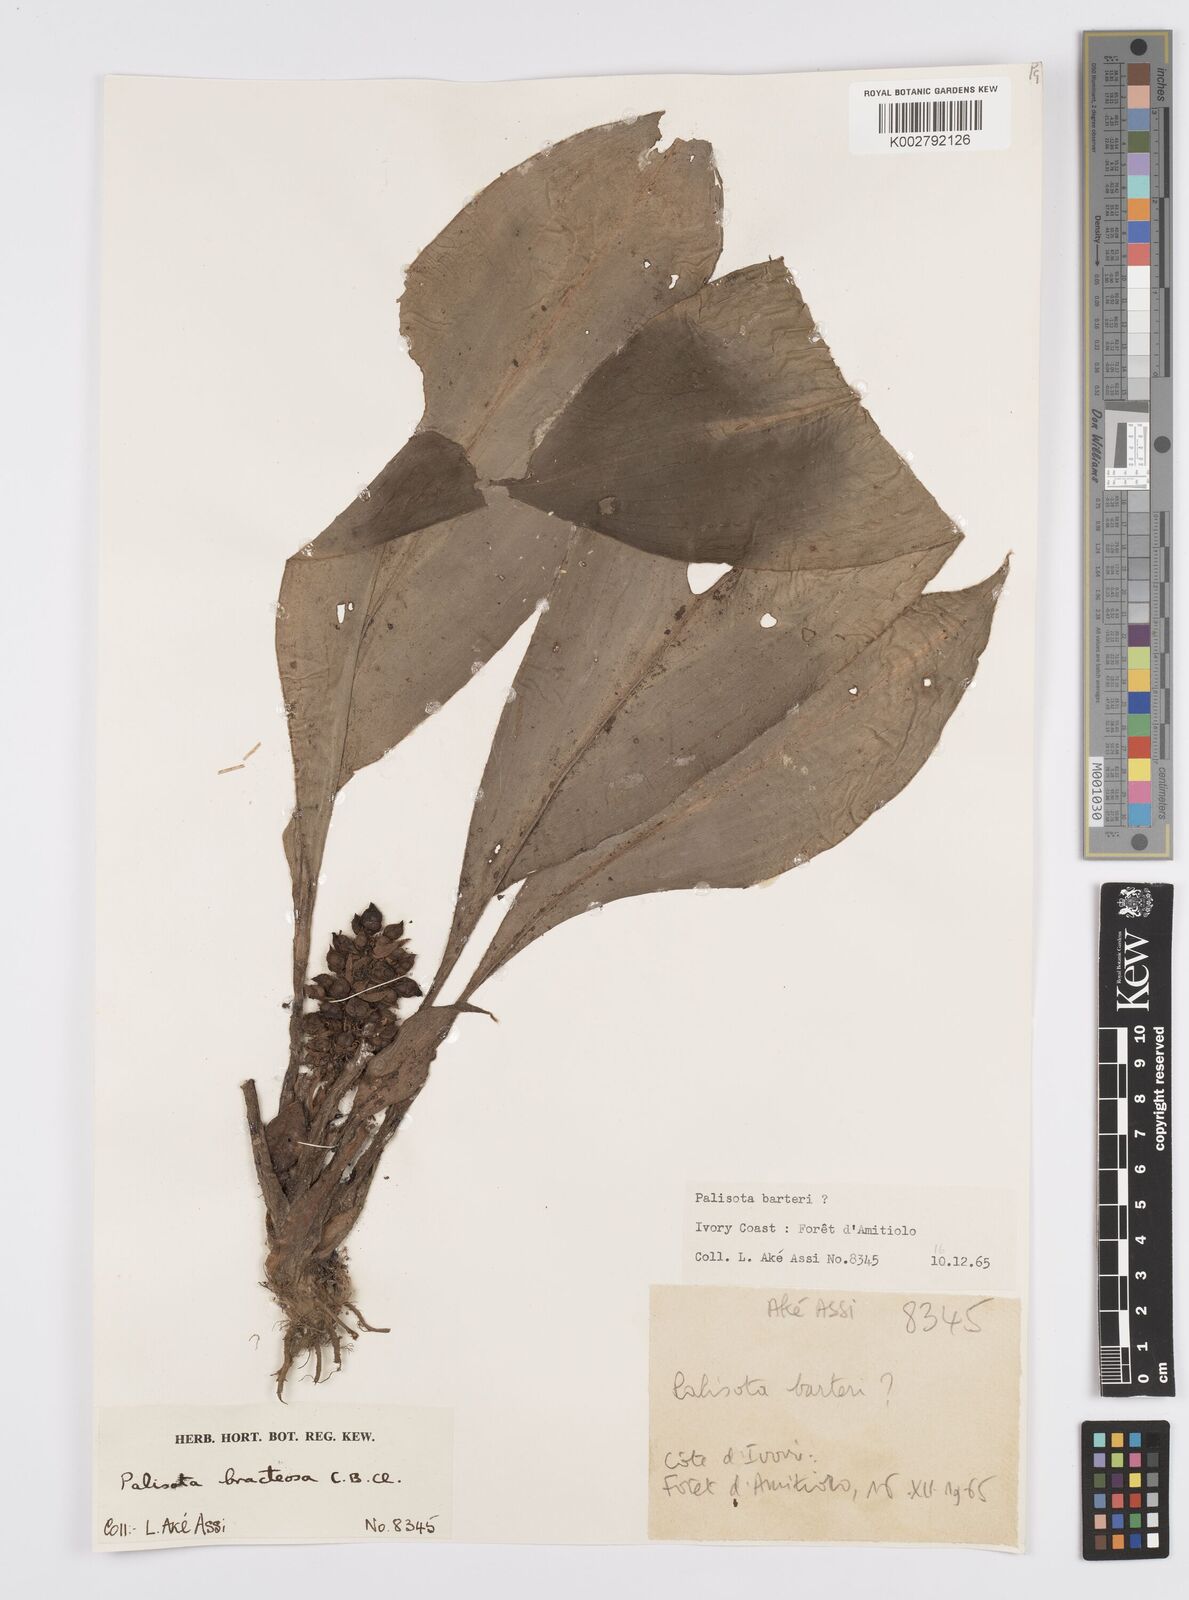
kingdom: Plantae
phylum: Tracheophyta
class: Liliopsida
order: Commelinales
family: Commelinaceae
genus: Palisota
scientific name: Palisota bracteosa
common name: Palisota
